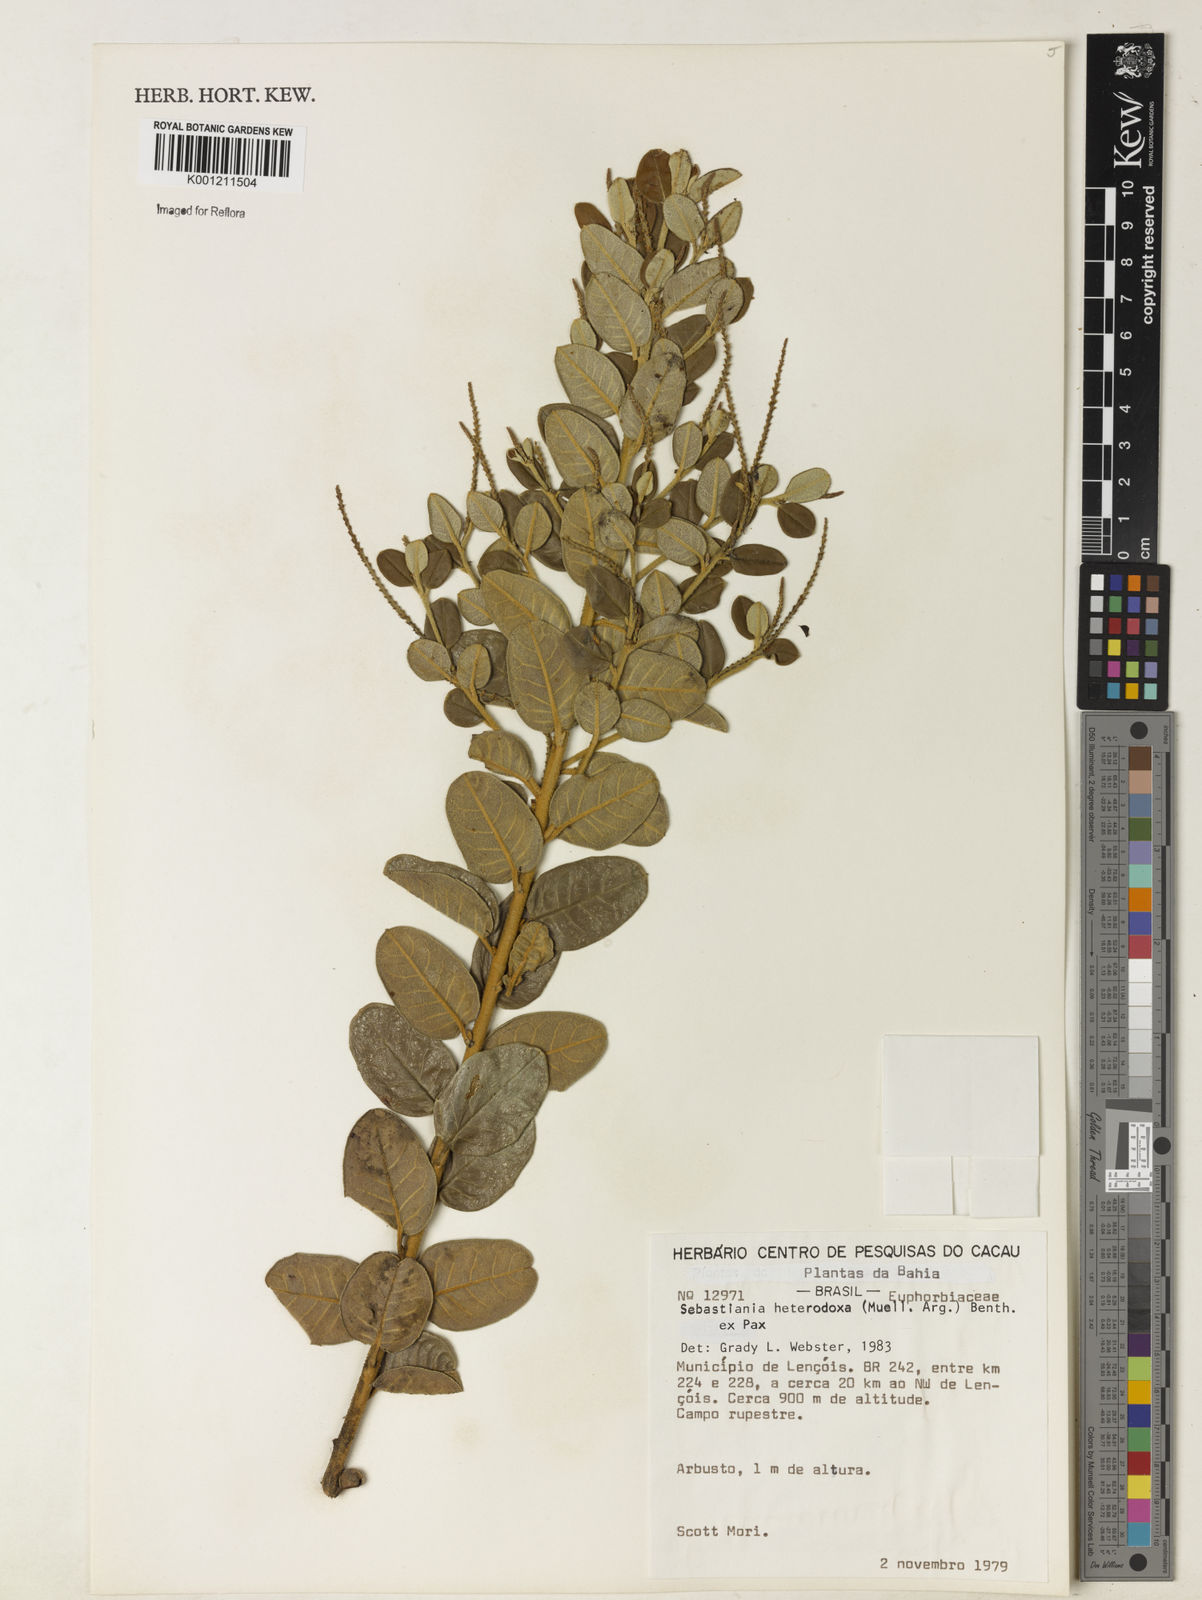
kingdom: Plantae
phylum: Tracheophyta
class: Magnoliopsida
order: Malpighiales
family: Euphorbiaceae
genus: Microstachys
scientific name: Microstachys
